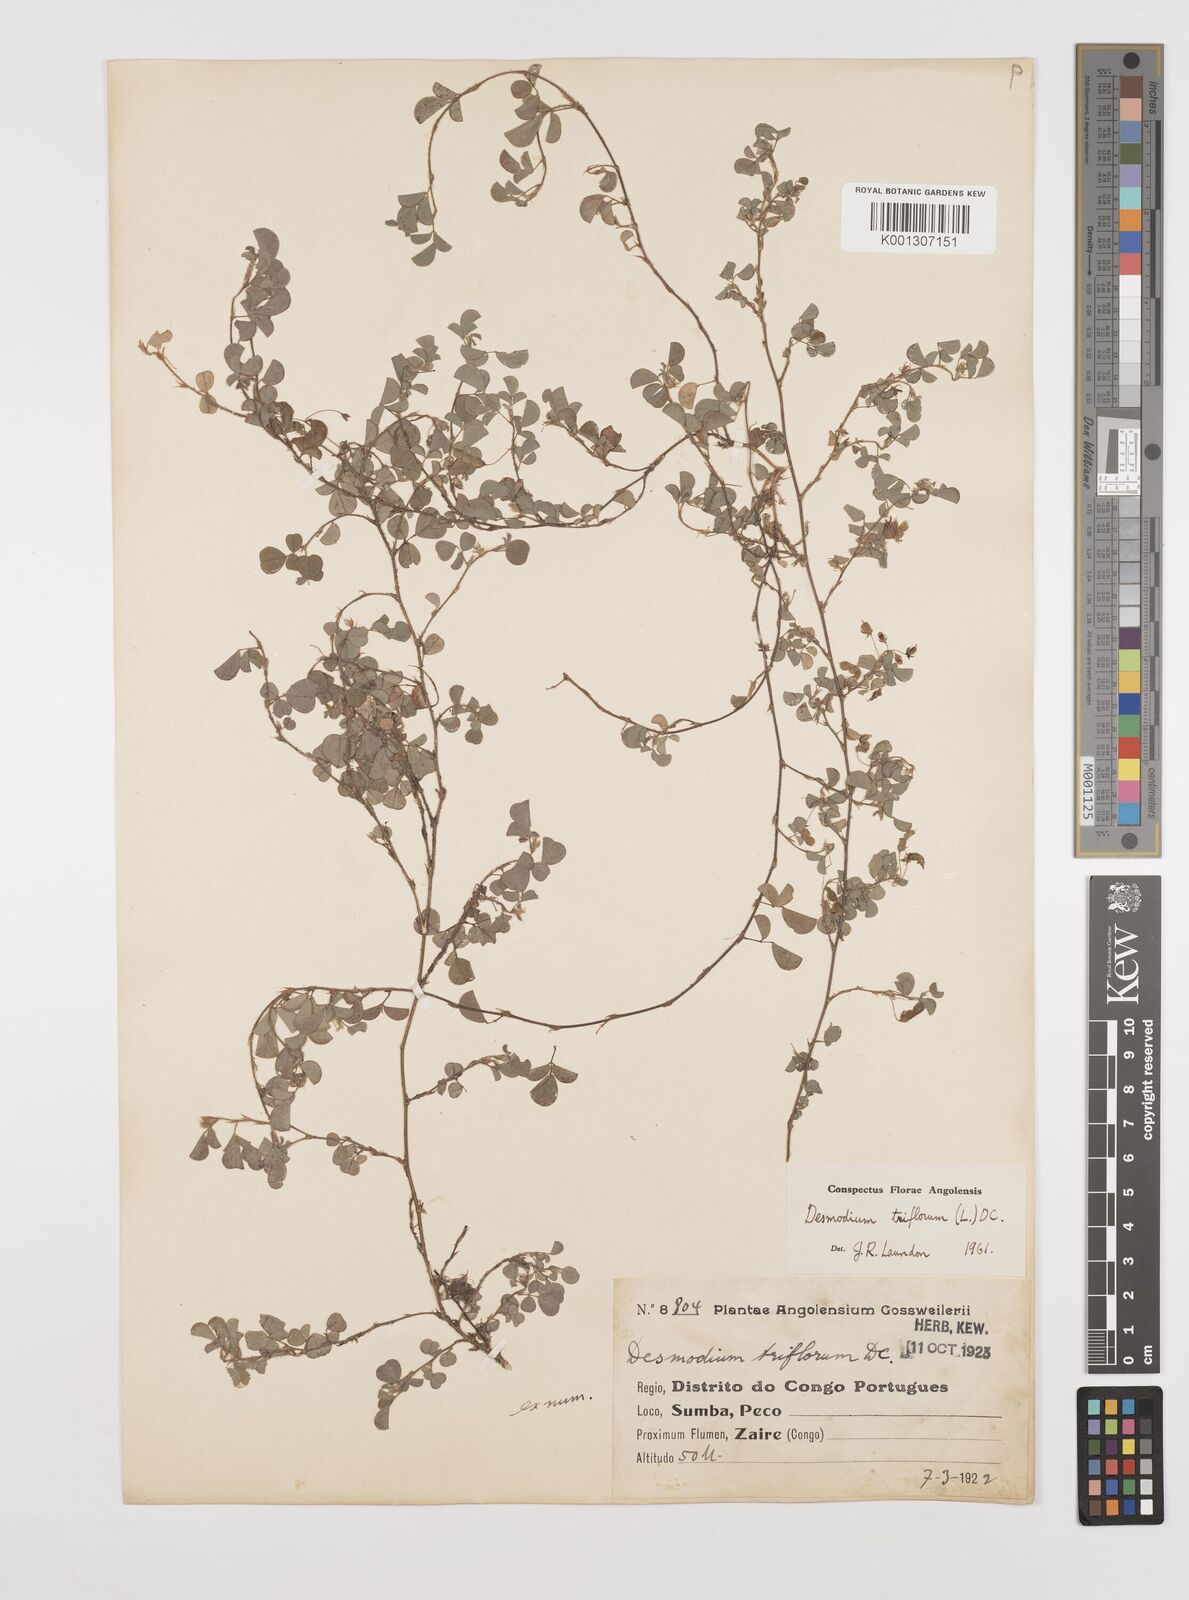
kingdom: Plantae
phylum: Tracheophyta
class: Magnoliopsida
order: Fabales
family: Fabaceae
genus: Grona
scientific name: Grona triflora
